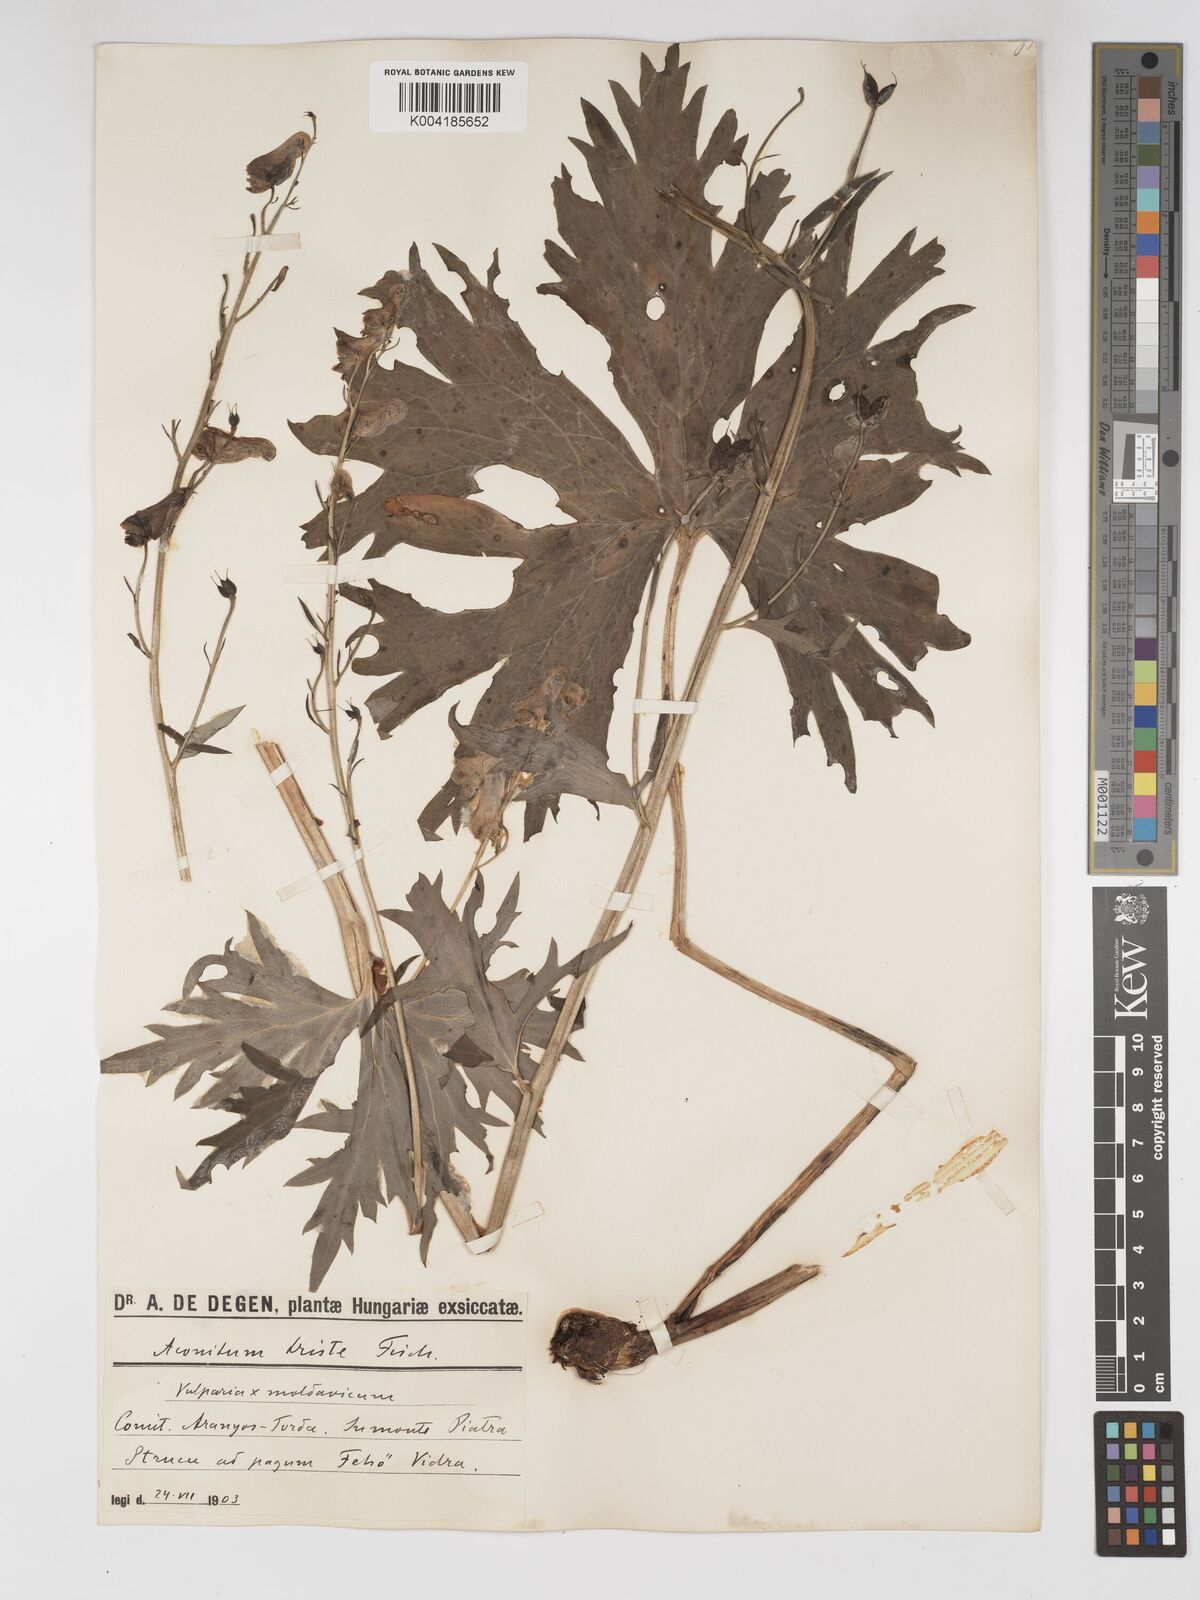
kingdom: Plantae
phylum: Tracheophyta
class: Magnoliopsida
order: Ranunculales
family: Ranunculaceae
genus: Aconitum
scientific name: Aconitum lycoctonum
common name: Wolf's-bane
